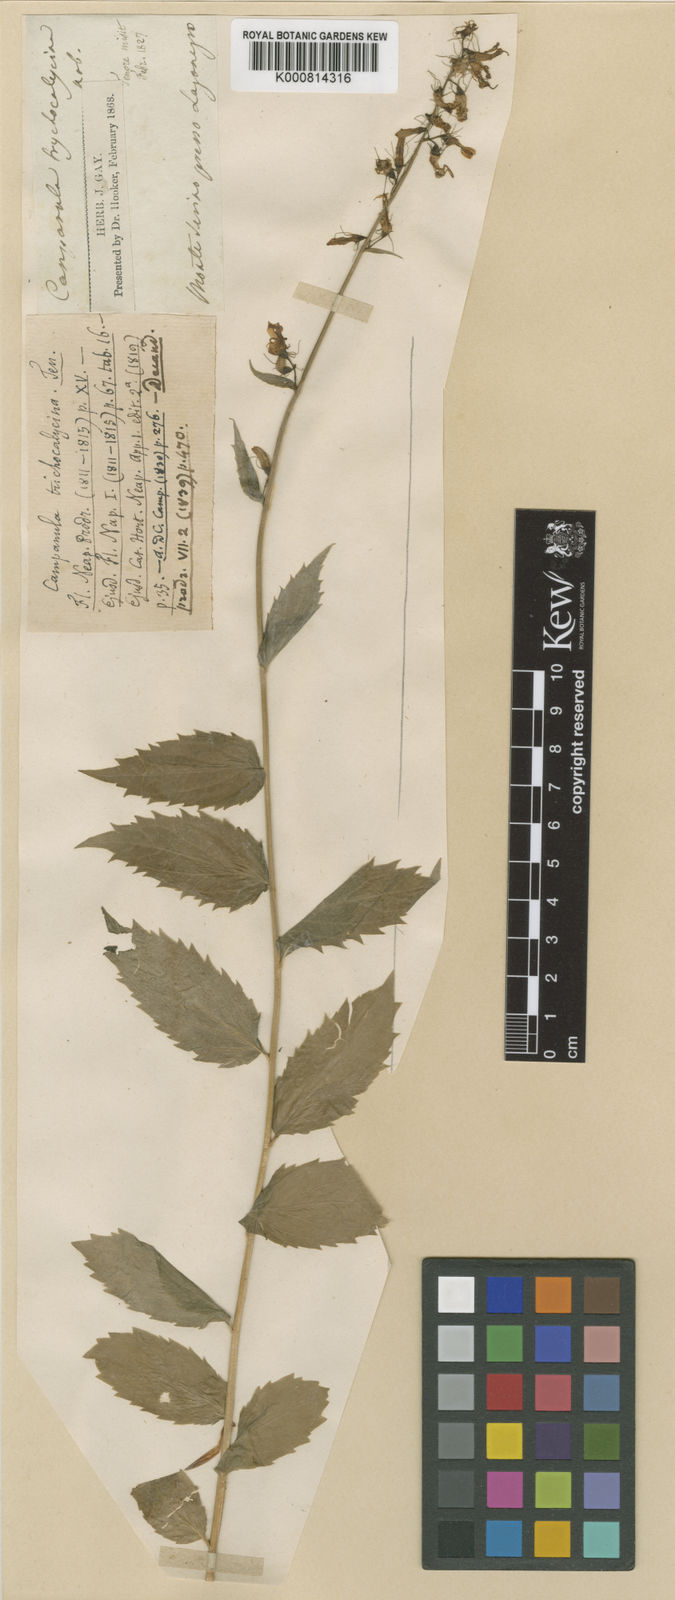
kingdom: Plantae
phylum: Tracheophyta
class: Magnoliopsida
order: Asterales
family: Campanulaceae
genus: Campanula
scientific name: Campanula trichocalycina
